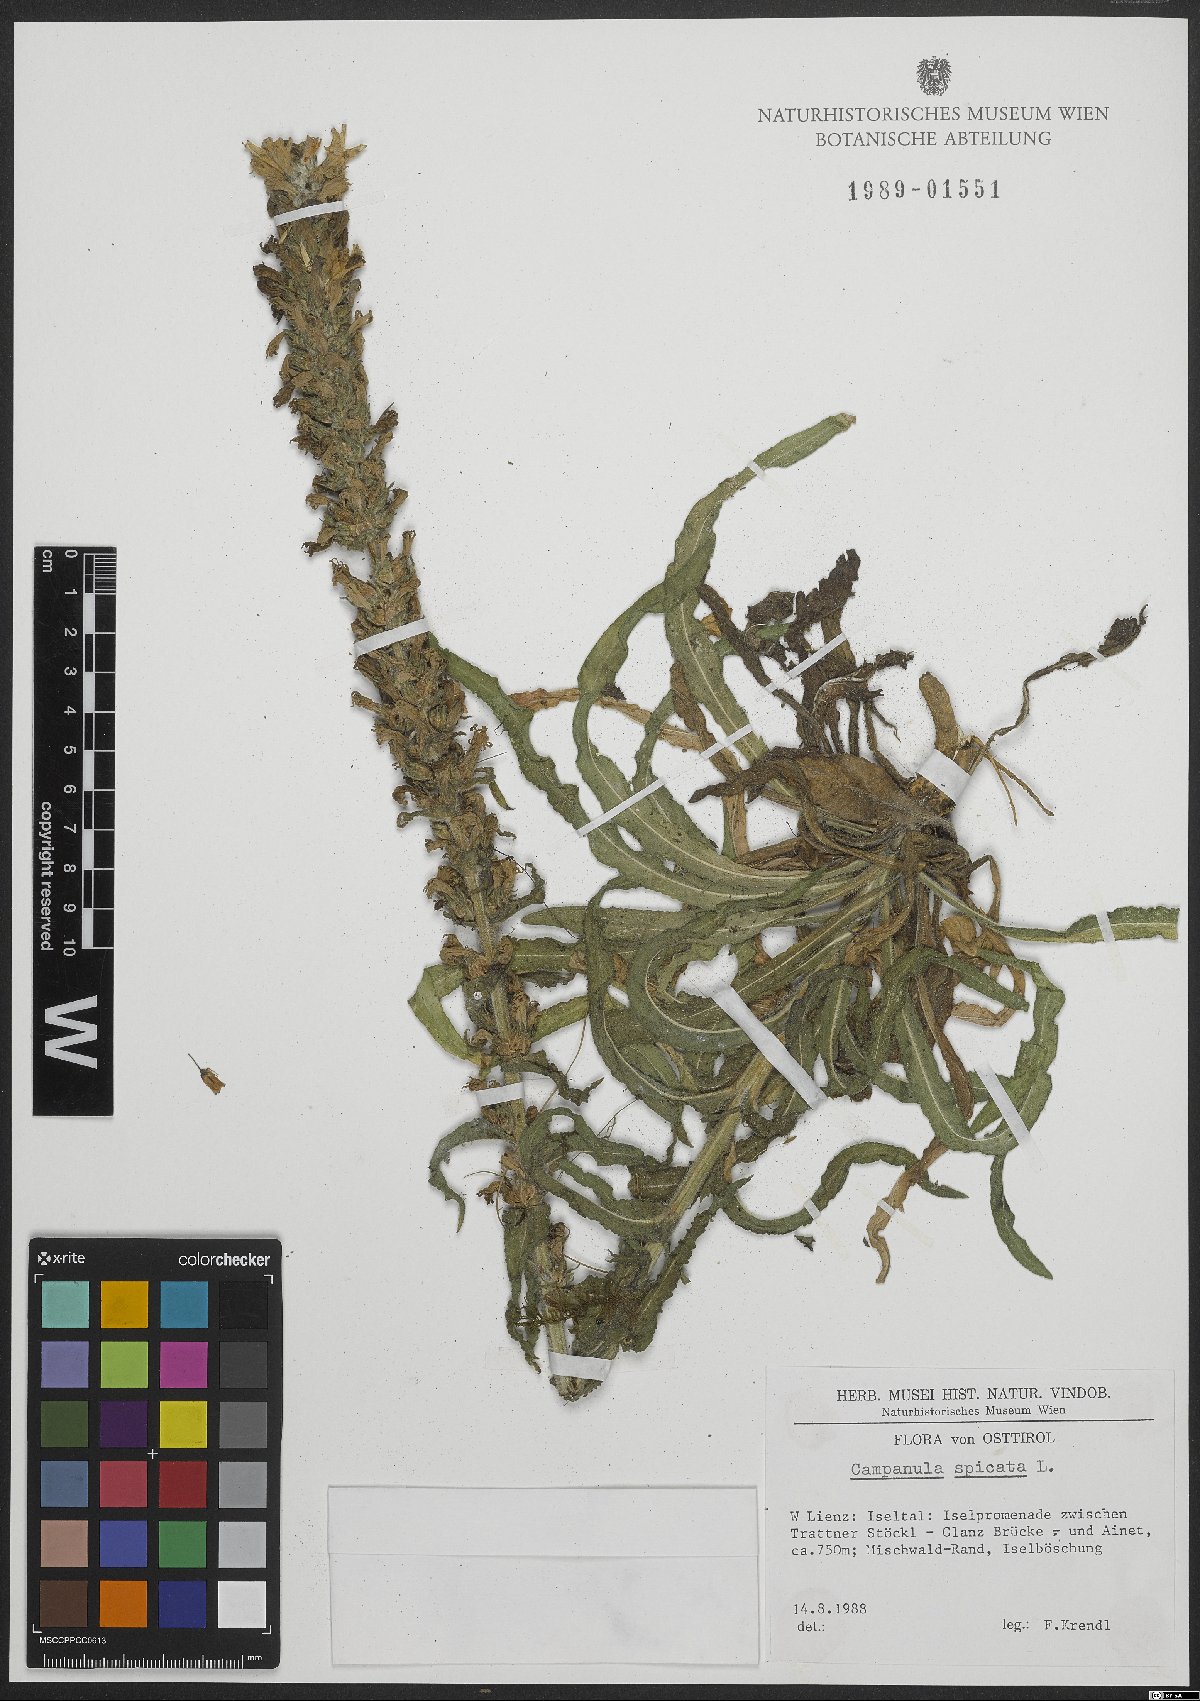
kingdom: Plantae
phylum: Tracheophyta
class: Magnoliopsida
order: Asterales
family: Campanulaceae
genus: Campanula
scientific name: Campanula spicata
